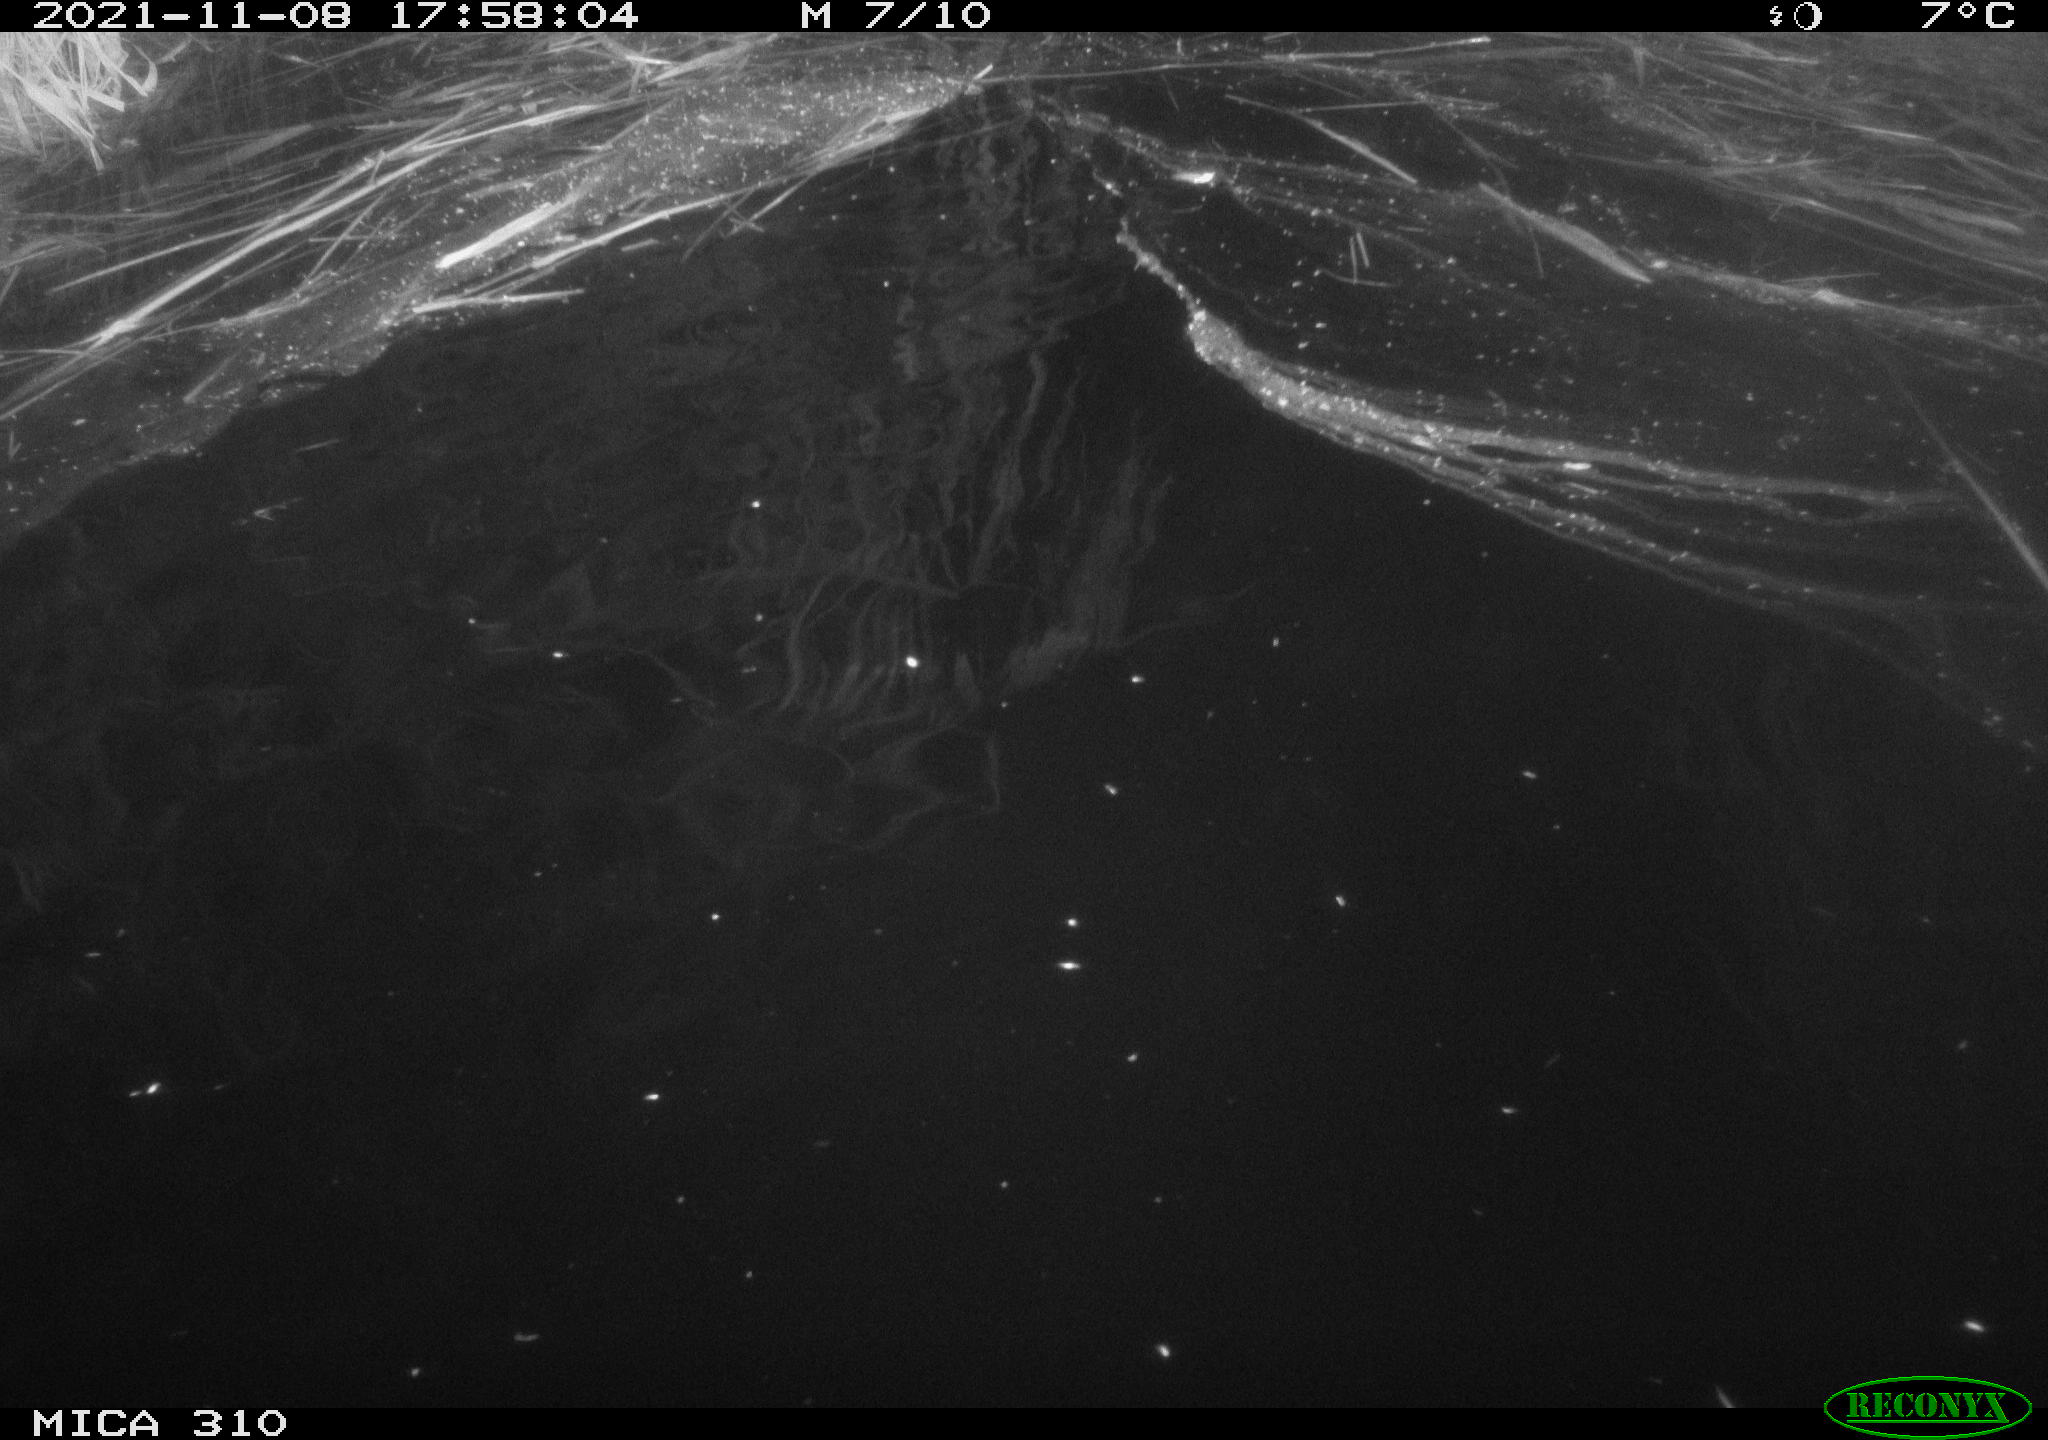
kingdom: Animalia
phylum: Chordata
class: Mammalia
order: Rodentia
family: Muridae
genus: Rattus
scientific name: Rattus norvegicus
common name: Brown rat
